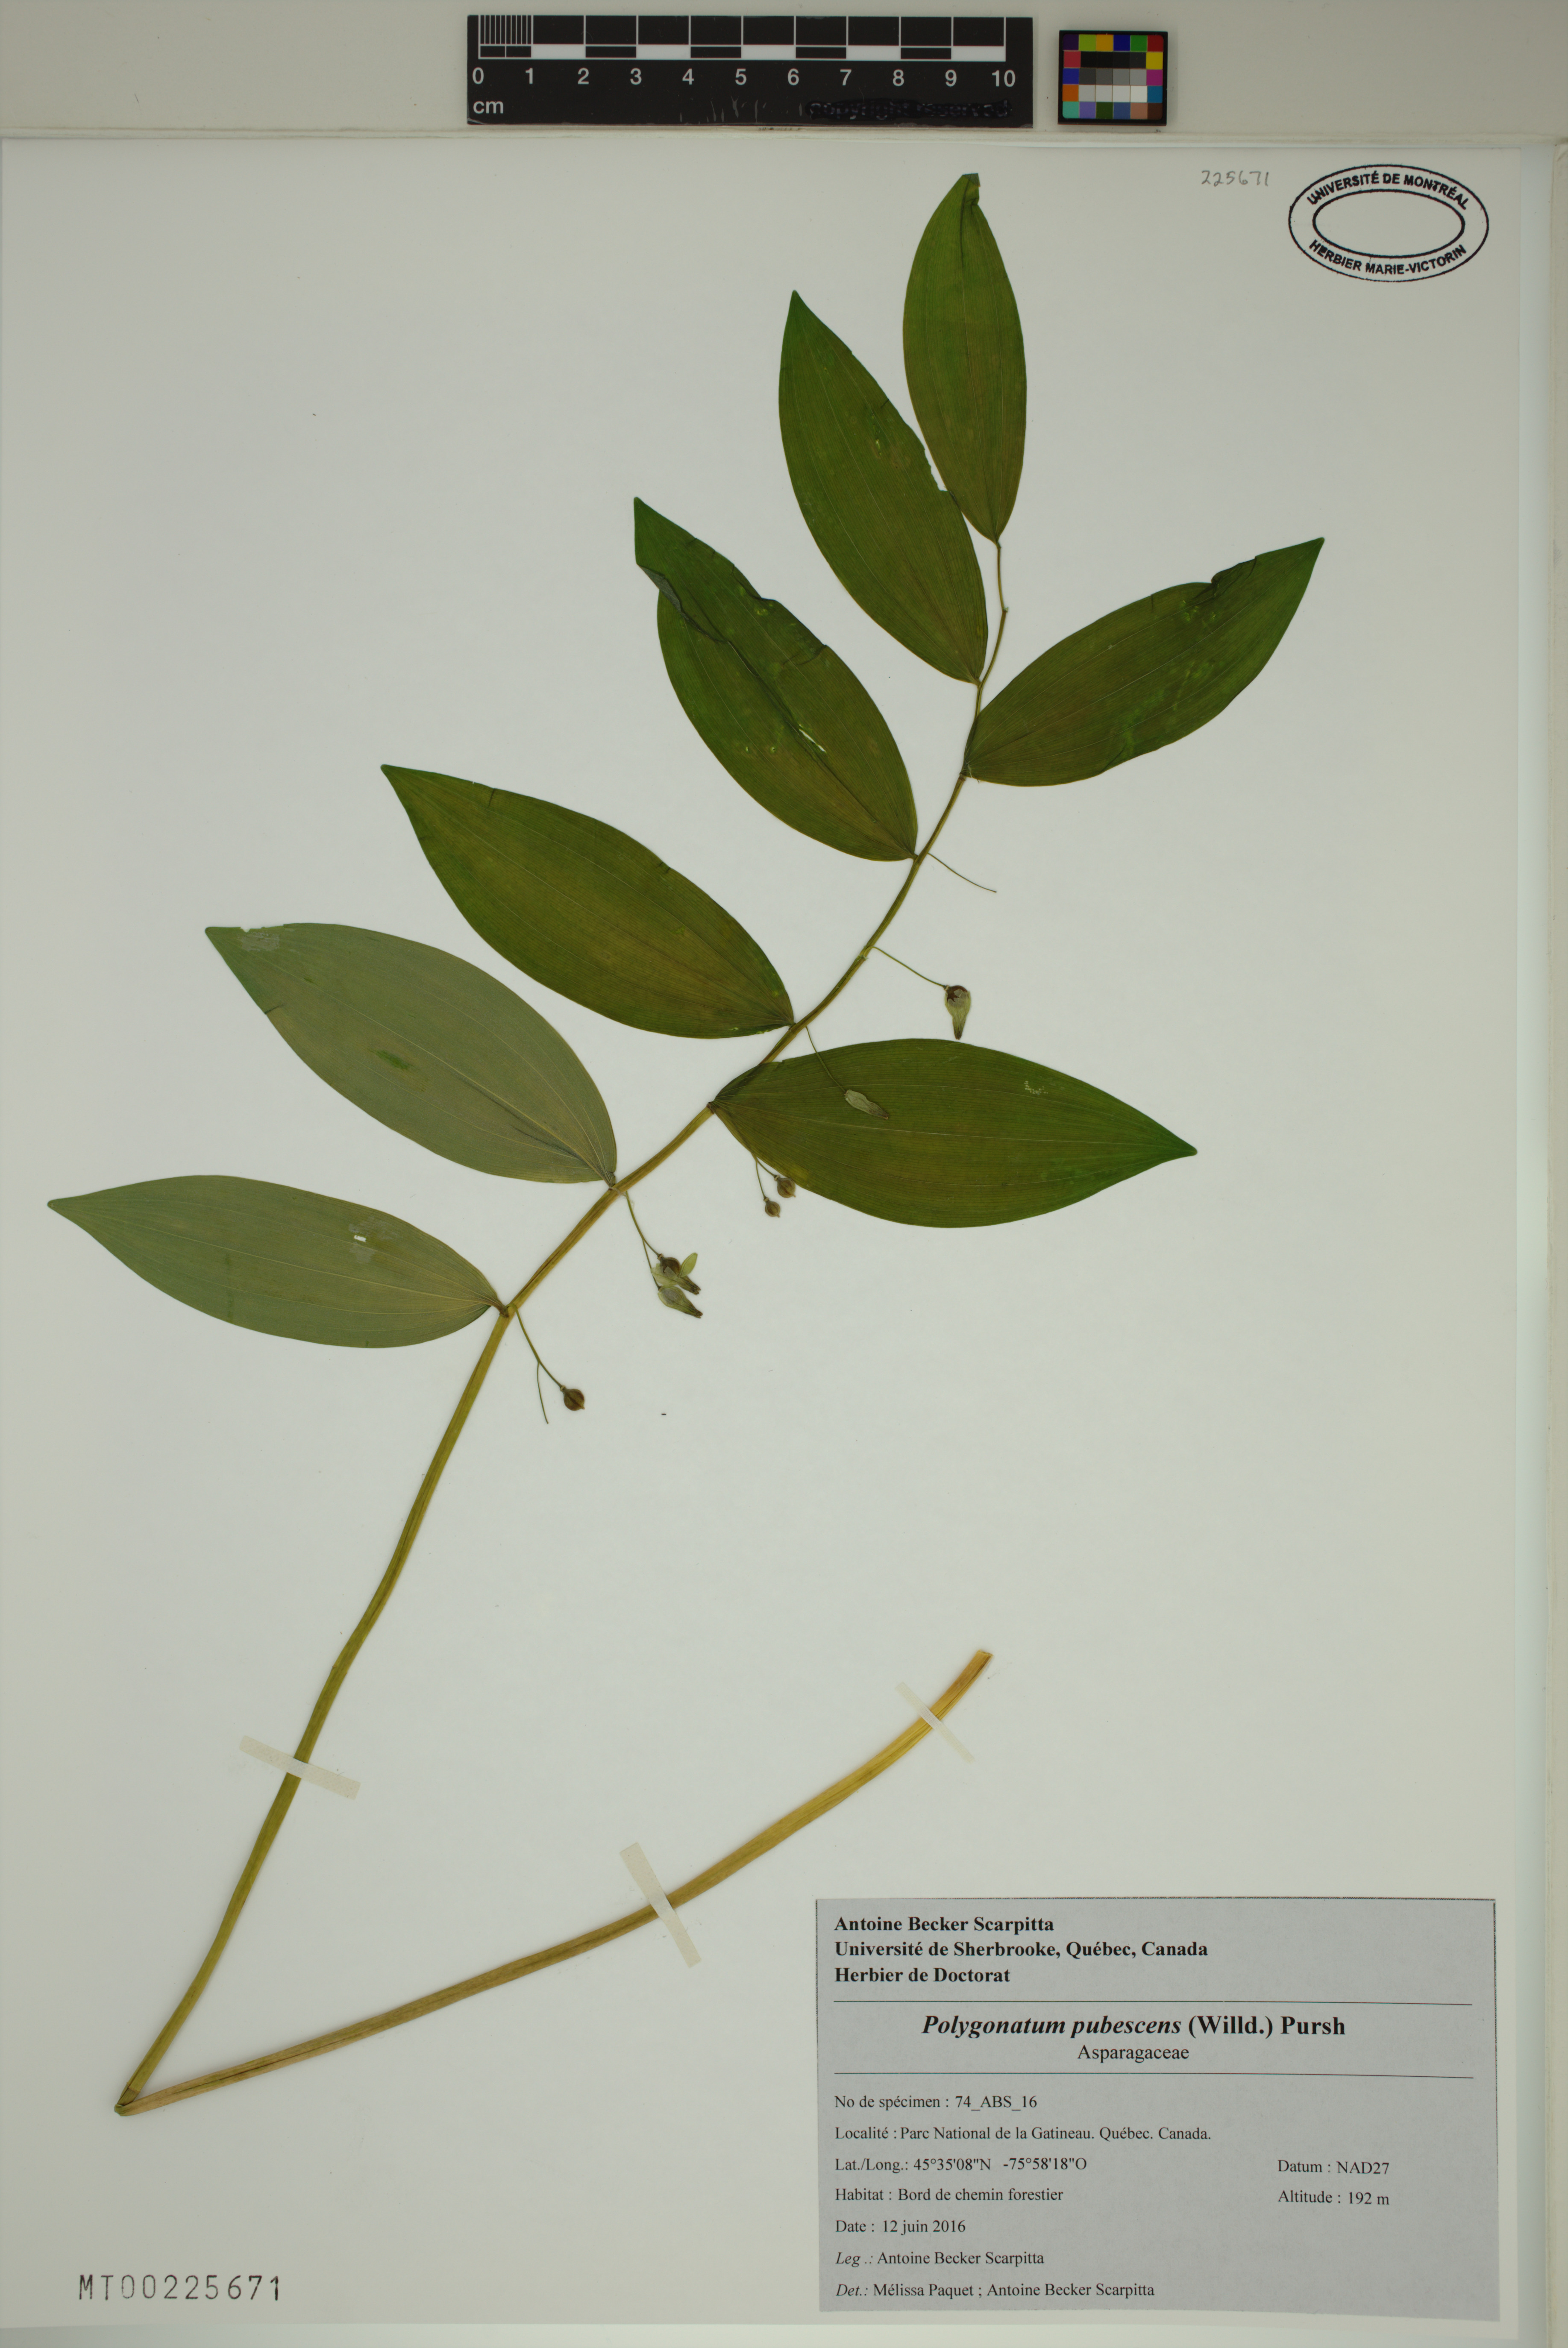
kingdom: Plantae
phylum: Tracheophyta
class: Liliopsida
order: Asparagales
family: Asparagaceae
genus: Polygonatum
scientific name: Polygonatum pubescens
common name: Downy solomon's seal
